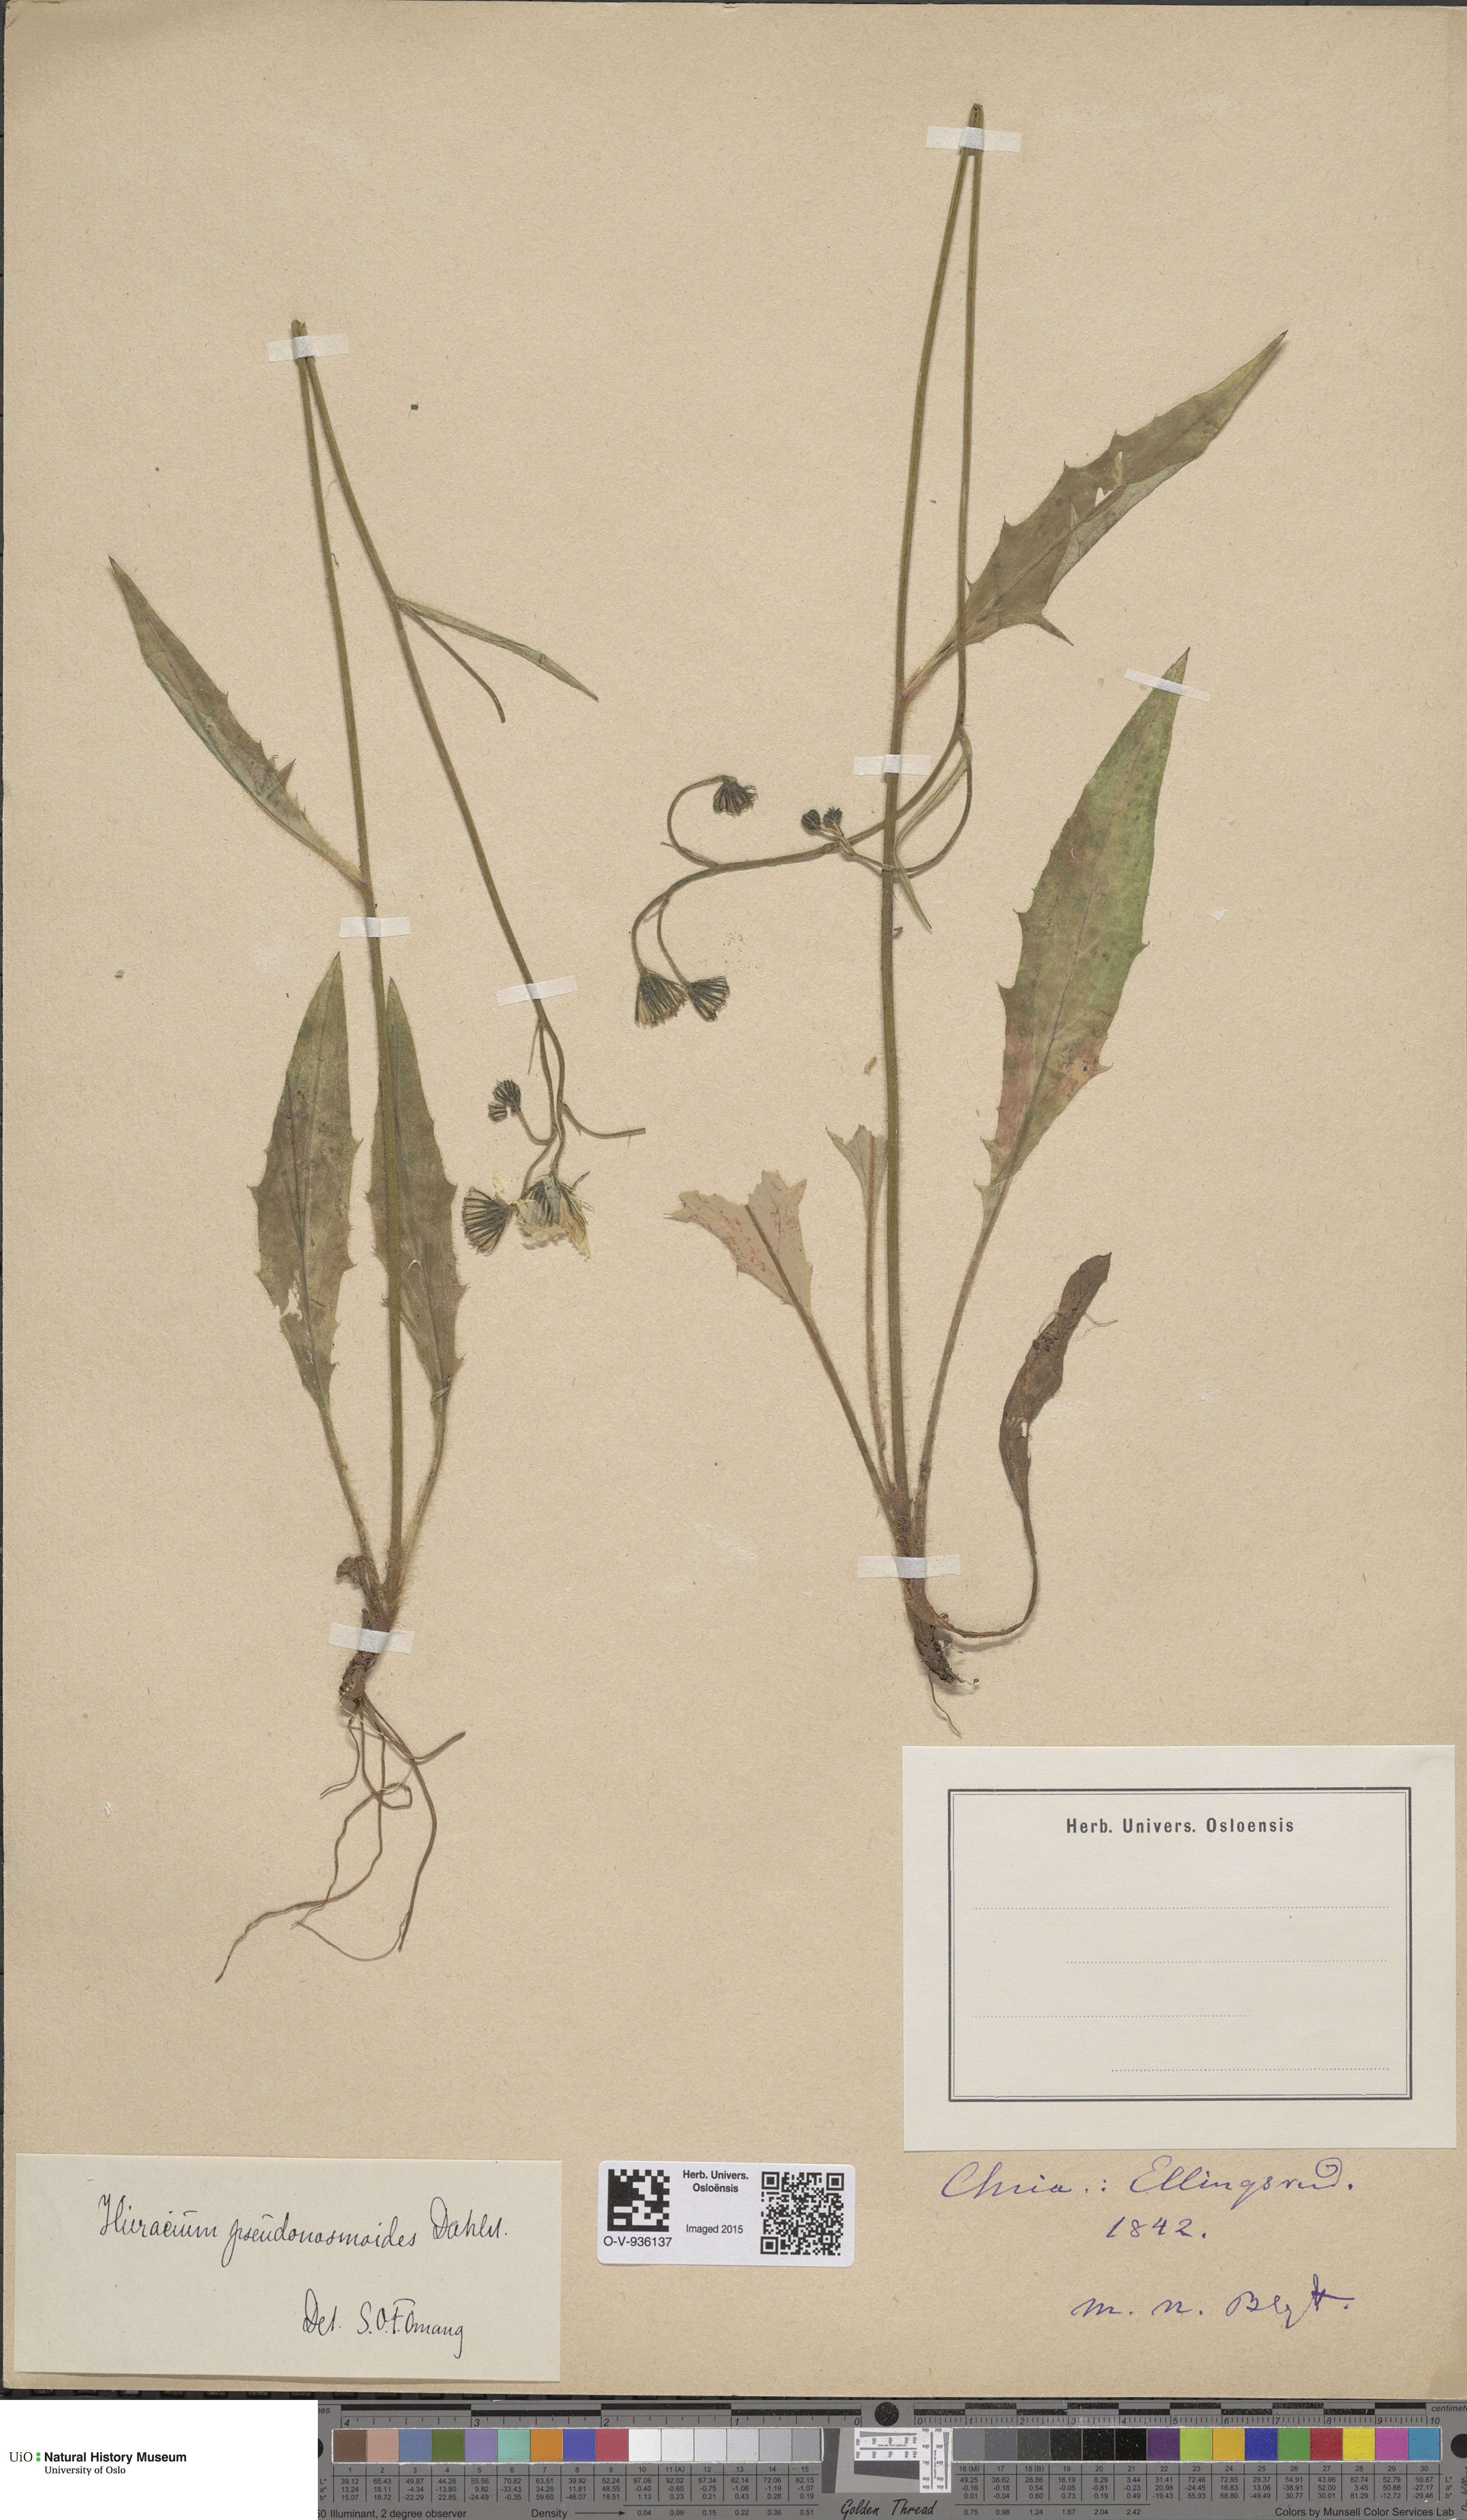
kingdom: Plantae
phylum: Tracheophyta
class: Magnoliopsida
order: Asterales
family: Asteraceae
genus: Hieracium
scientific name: Hieracium saxifragum
